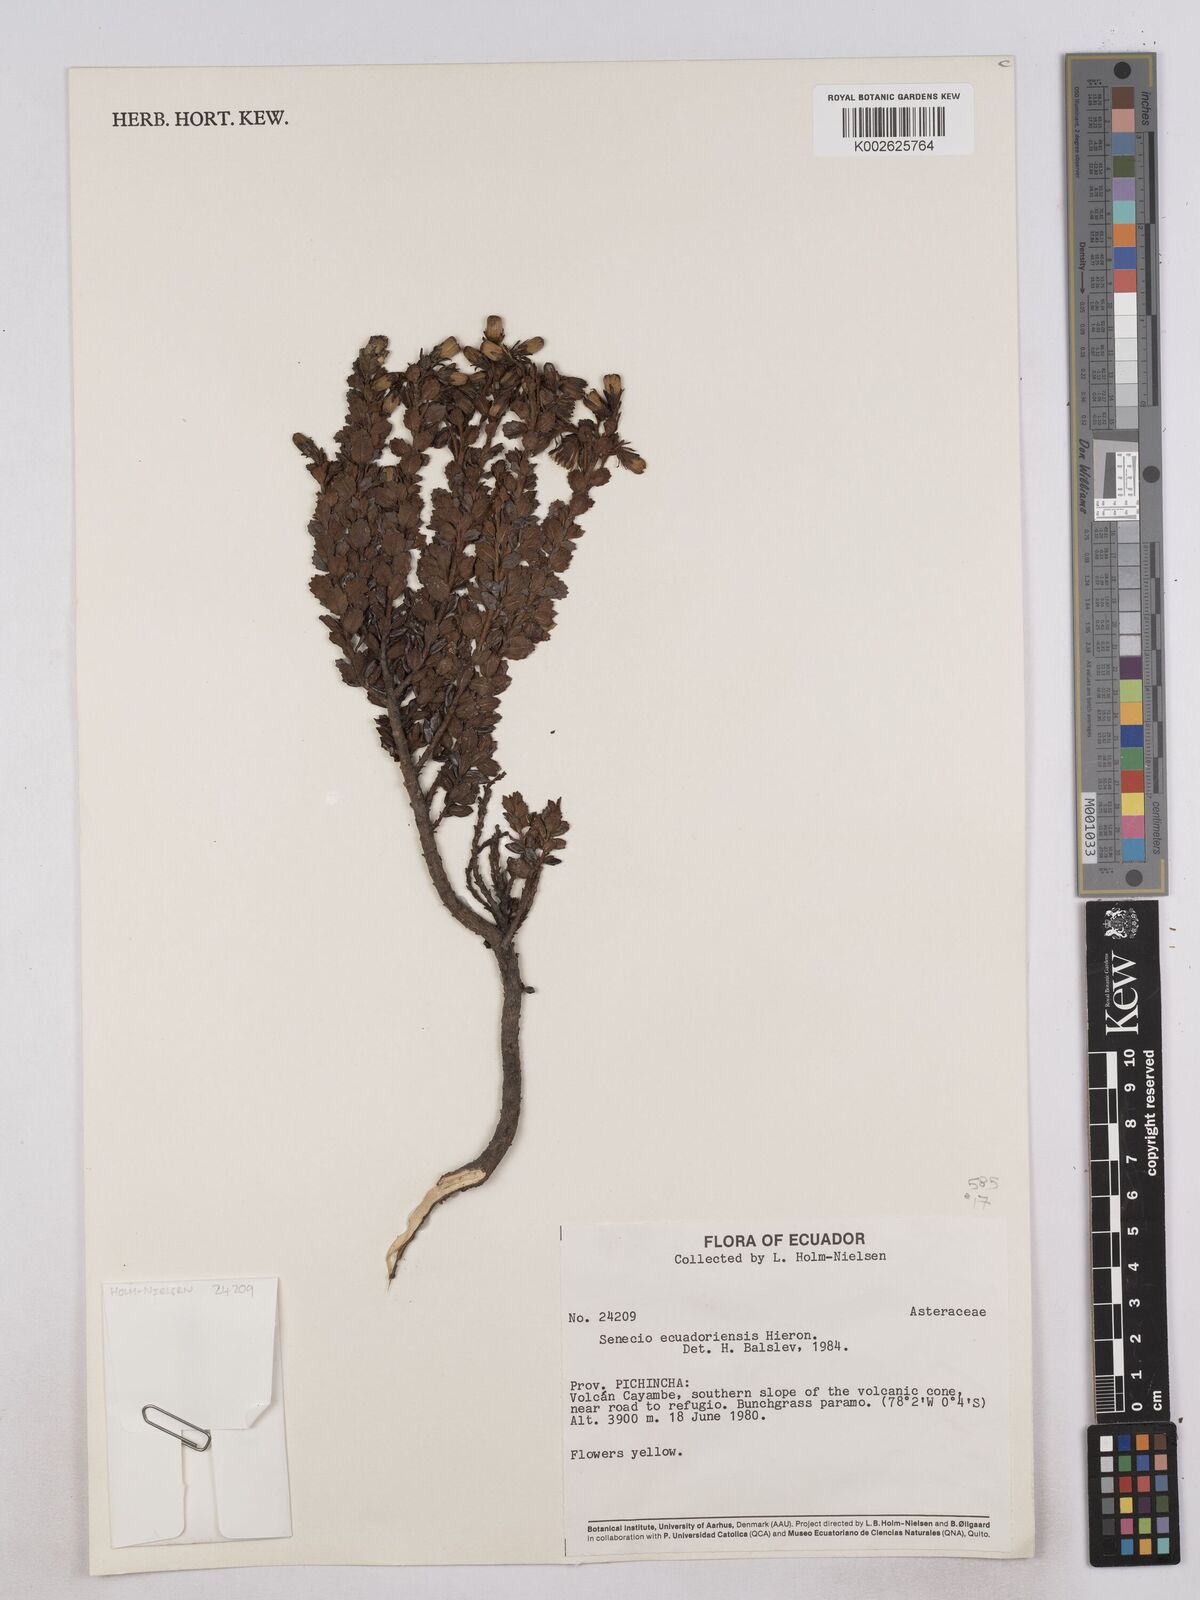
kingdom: Plantae
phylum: Tracheophyta
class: Magnoliopsida
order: Asterales
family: Asteraceae
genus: Monticalia
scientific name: Monticalia myrsinites
